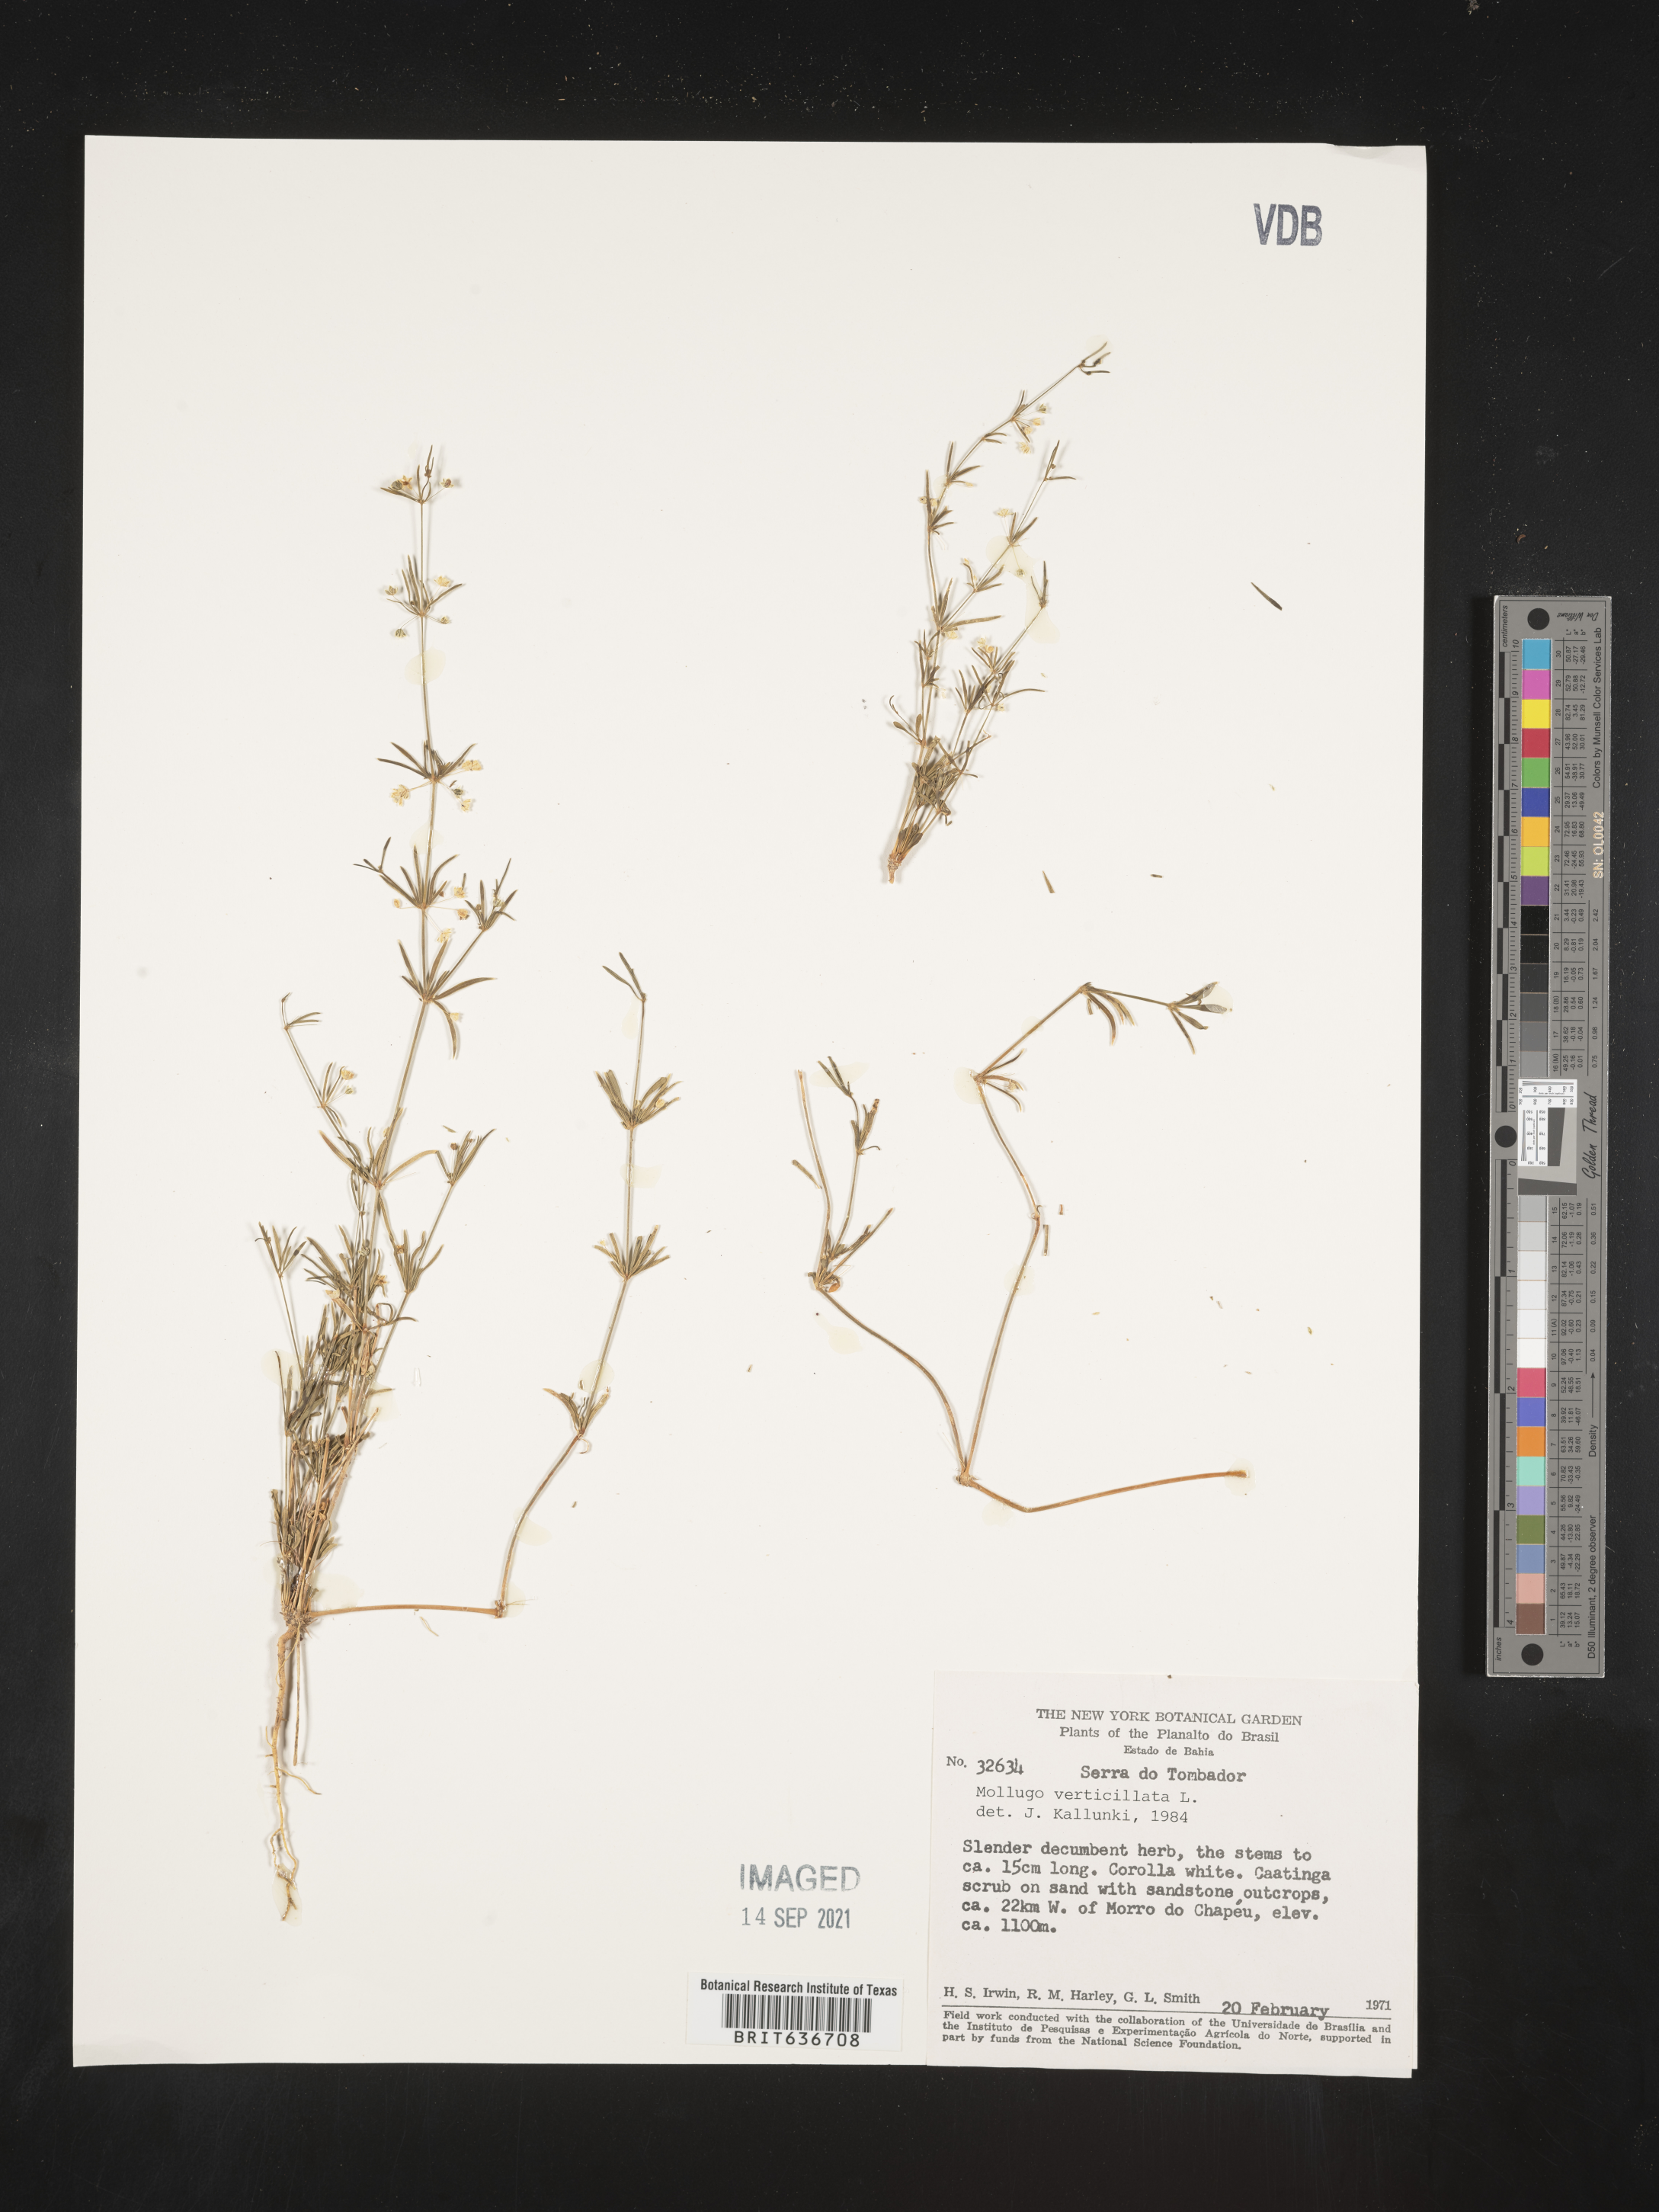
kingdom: Plantae
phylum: Tracheophyta
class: Magnoliopsida
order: Caryophyllales
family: Molluginaceae
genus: Mollugo
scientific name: Mollugo
